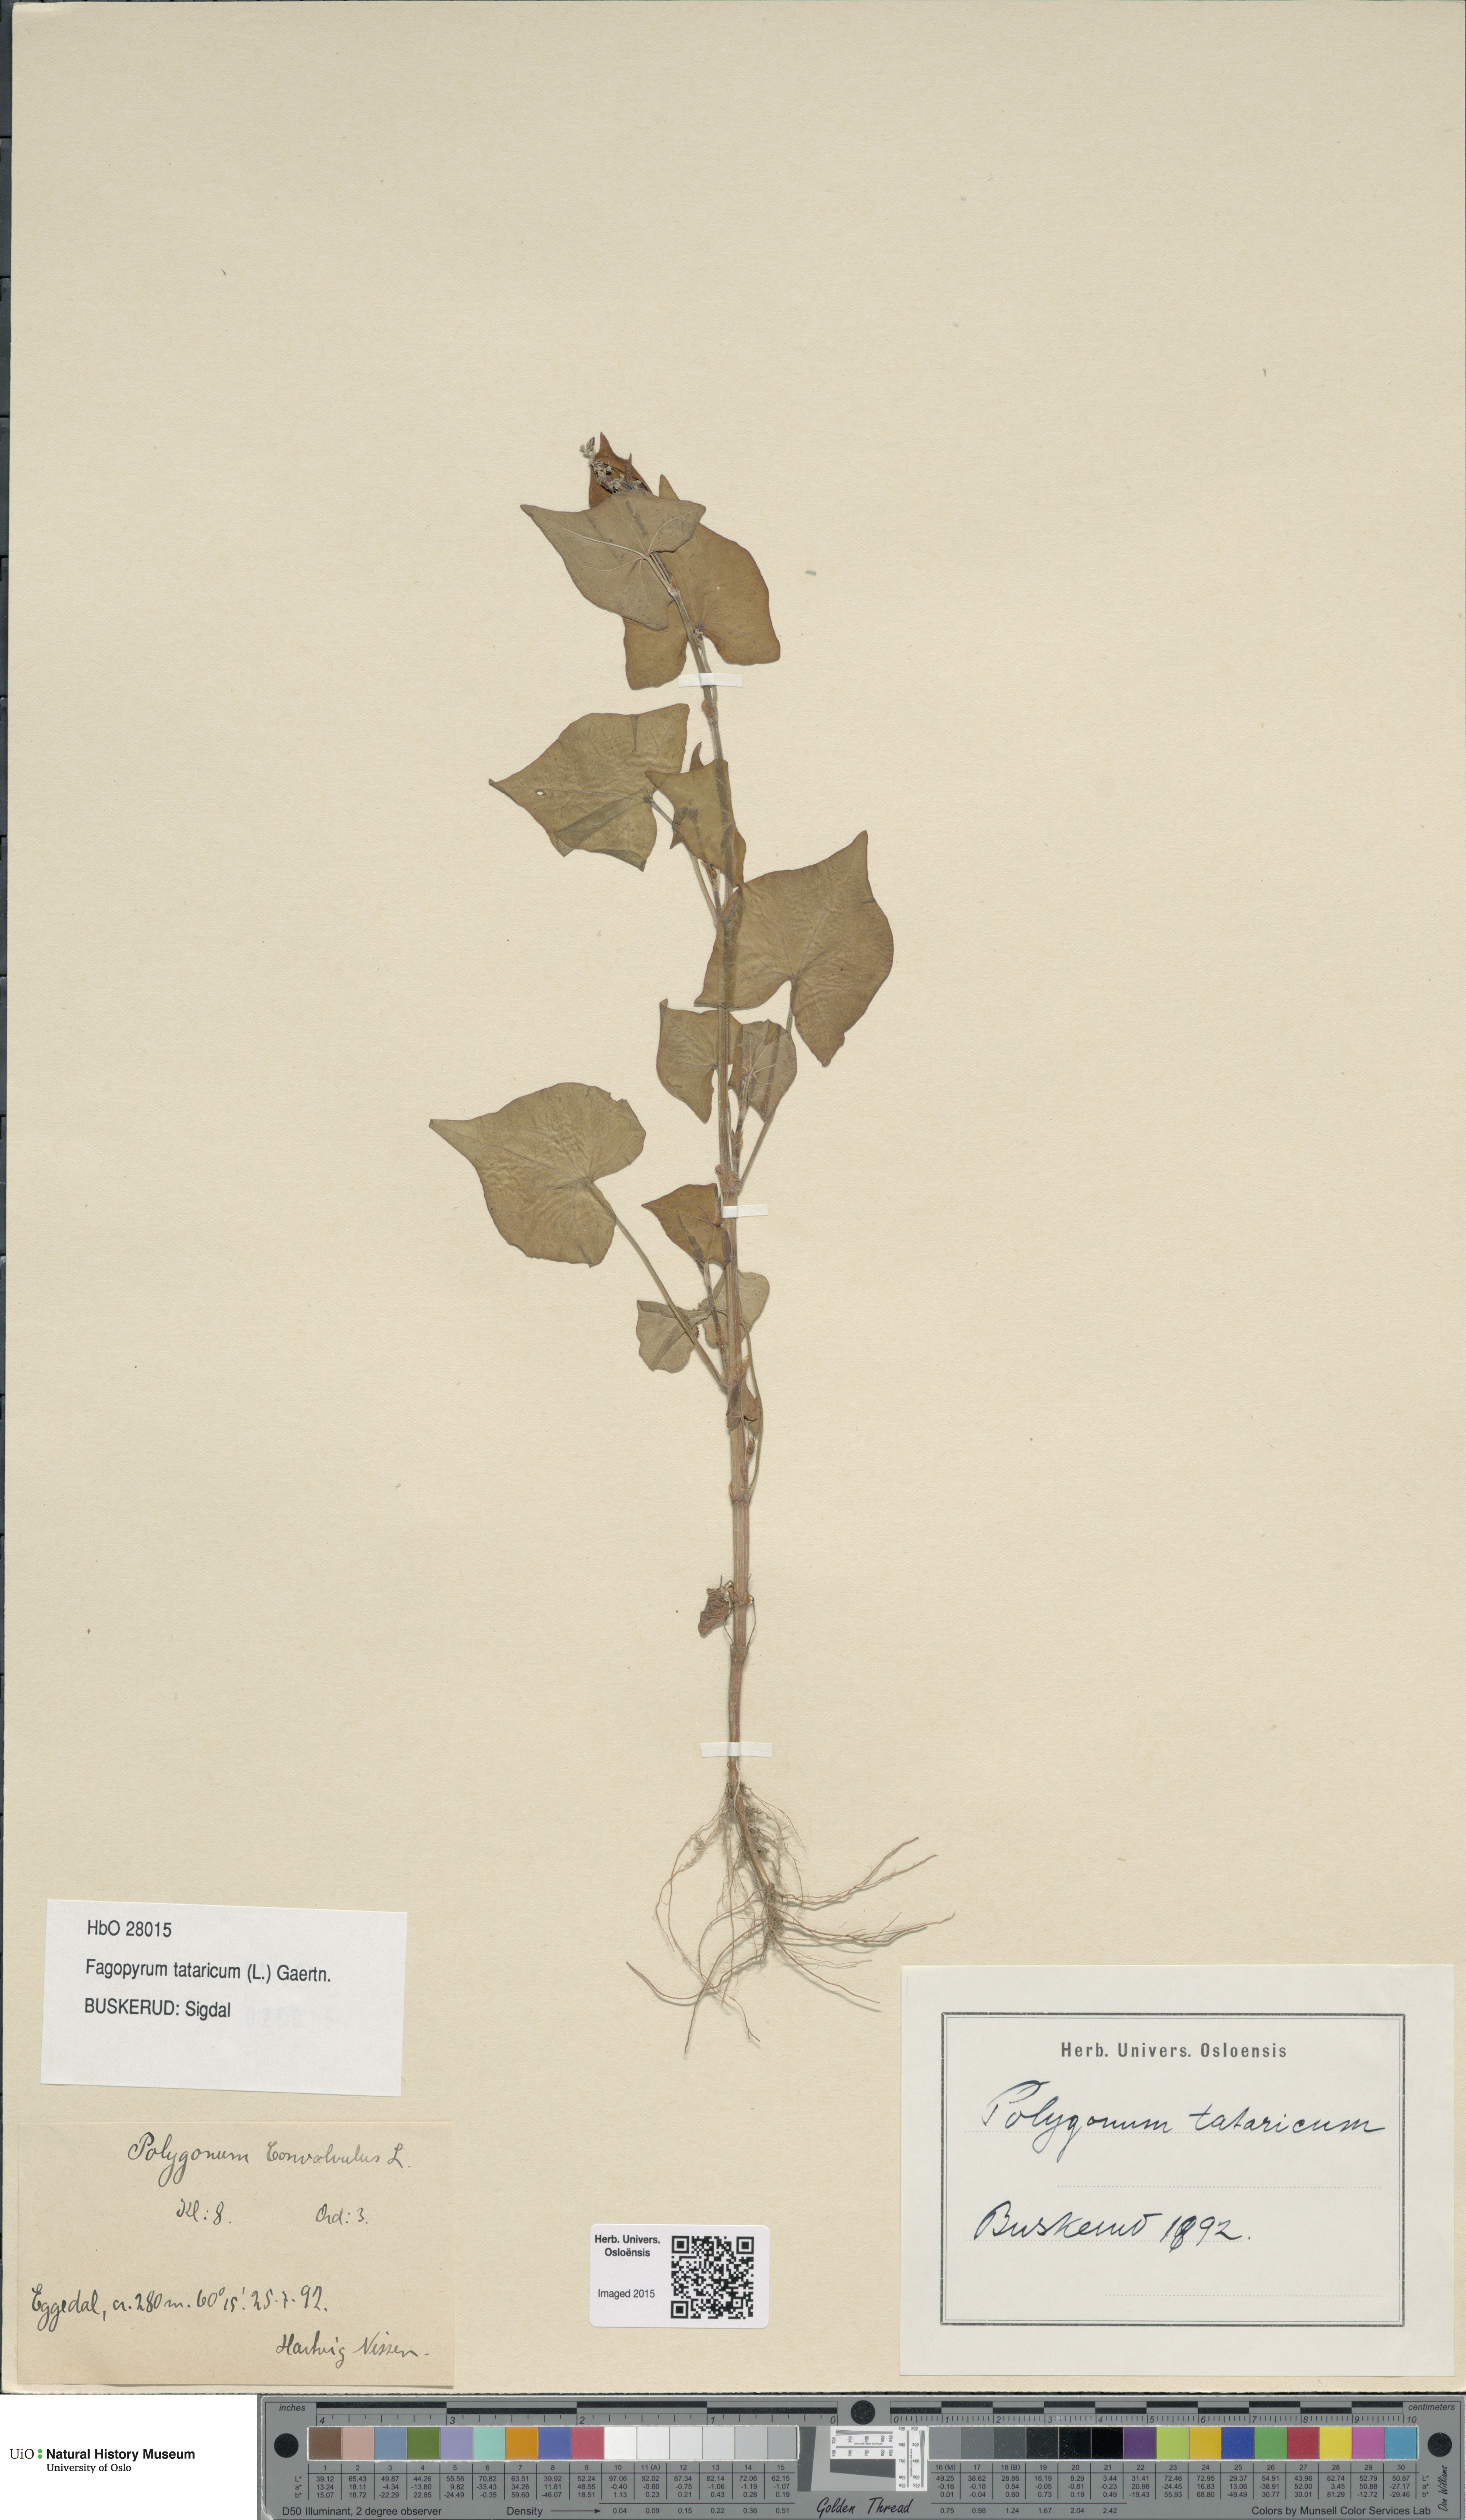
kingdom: Plantae
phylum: Tracheophyta
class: Magnoliopsida
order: Caryophyllales
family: Polygonaceae
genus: Fagopyrum
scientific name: Fagopyrum tataricum
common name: Green buckwheat
